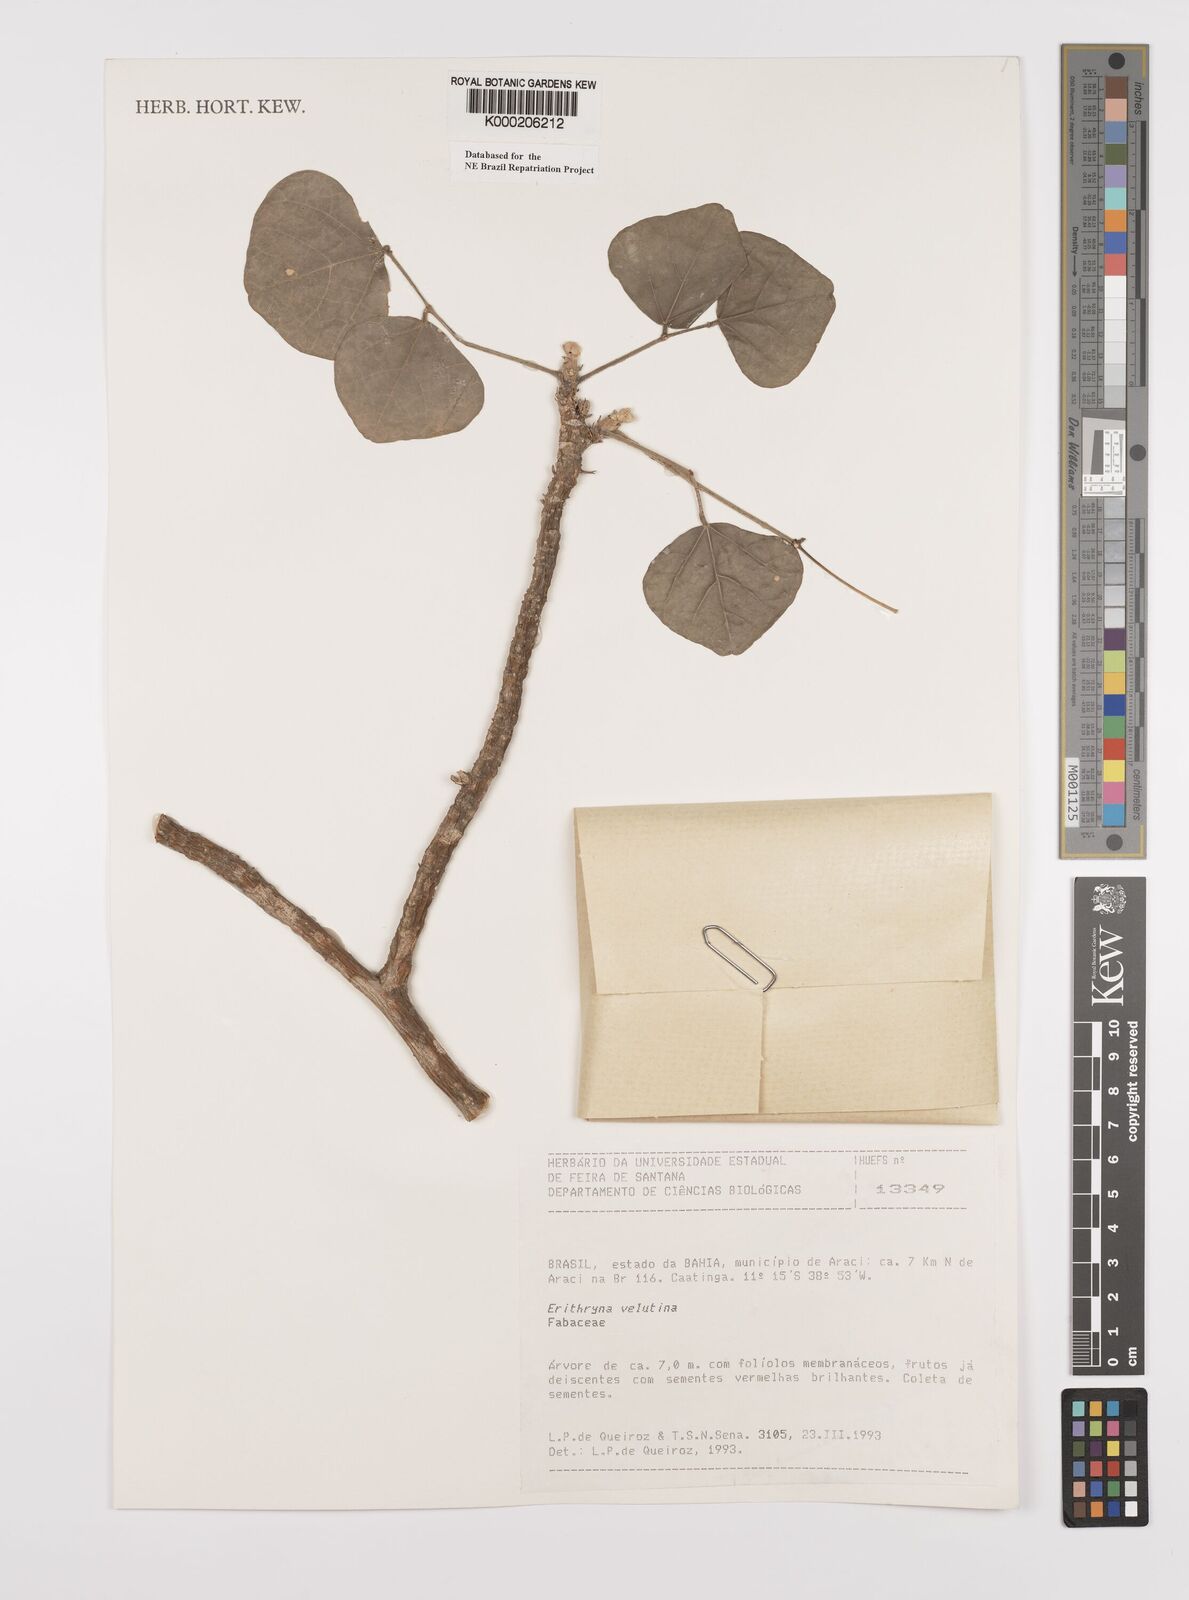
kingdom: Plantae
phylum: Tracheophyta
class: Magnoliopsida
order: Fabales
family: Fabaceae
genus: Erythrina
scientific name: Erythrina velutina
